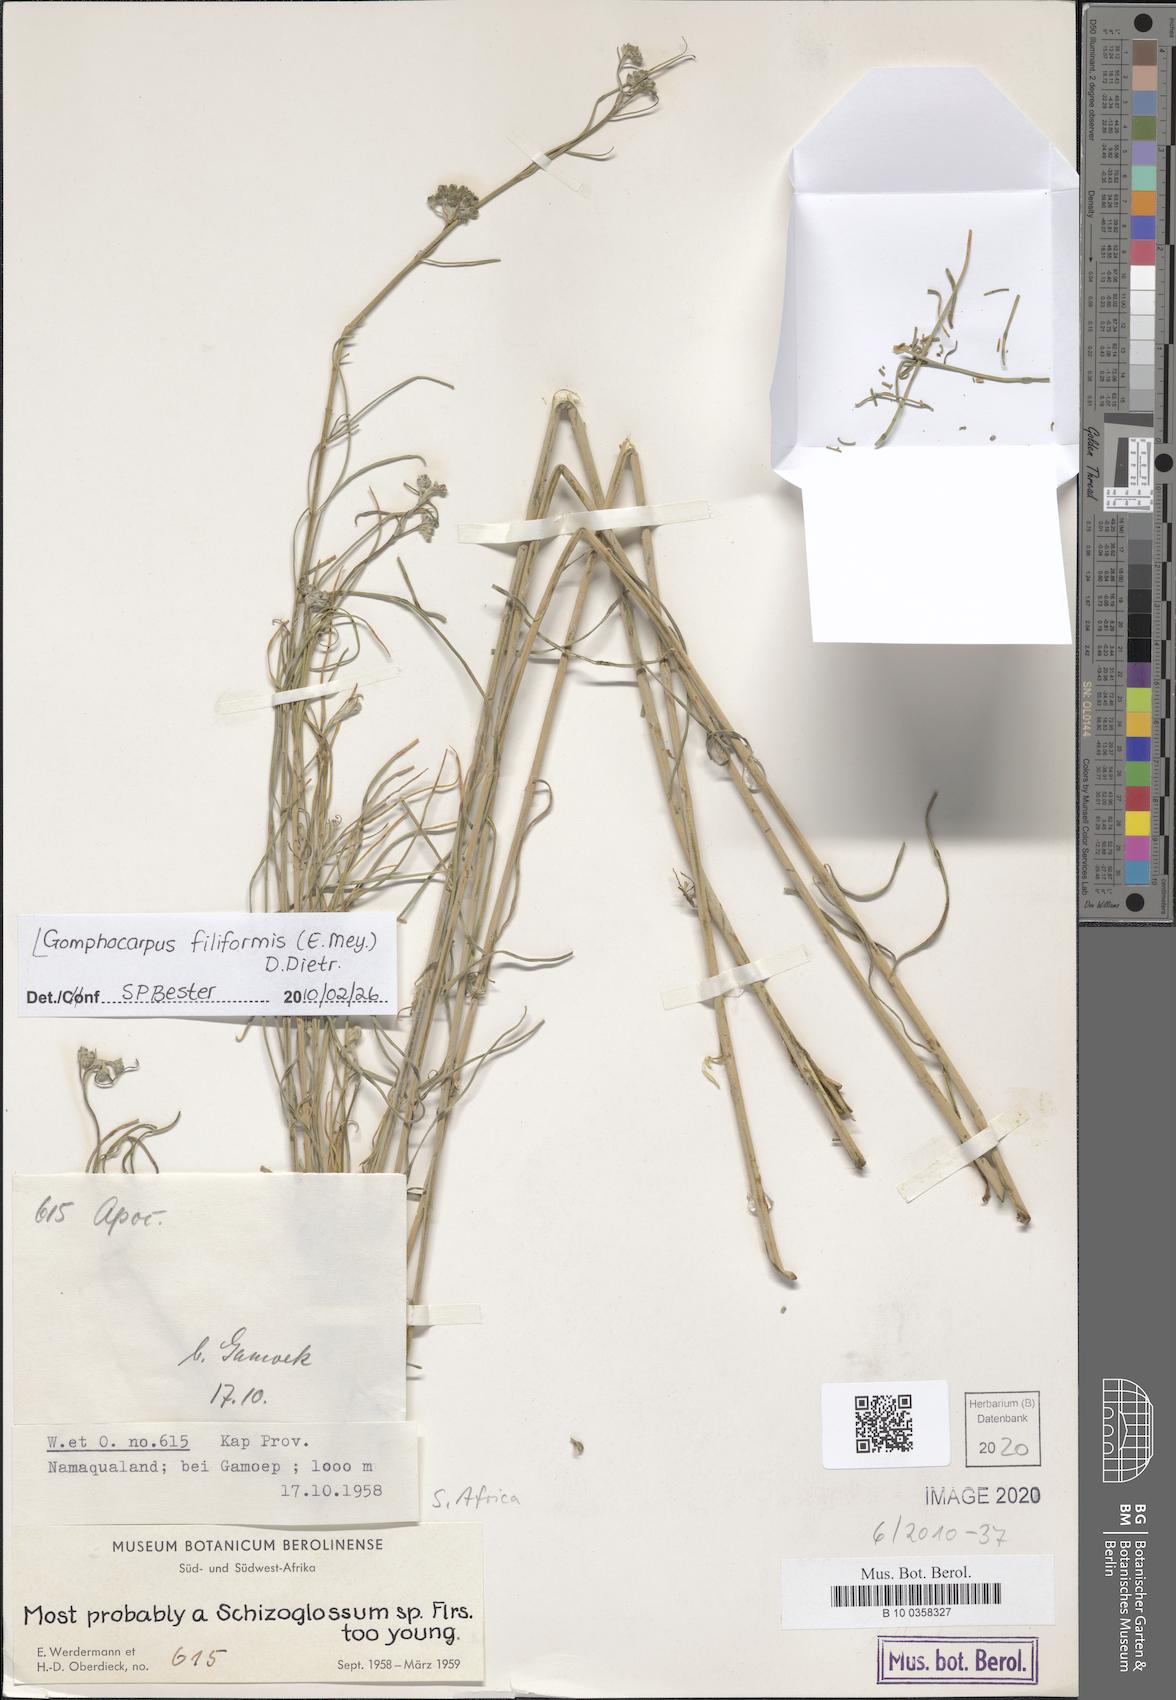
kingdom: Plantae
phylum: Tracheophyta
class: Magnoliopsida
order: Gentianales
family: Apocynaceae
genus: Gomphocarpus
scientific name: Gomphocarpus filiformis
